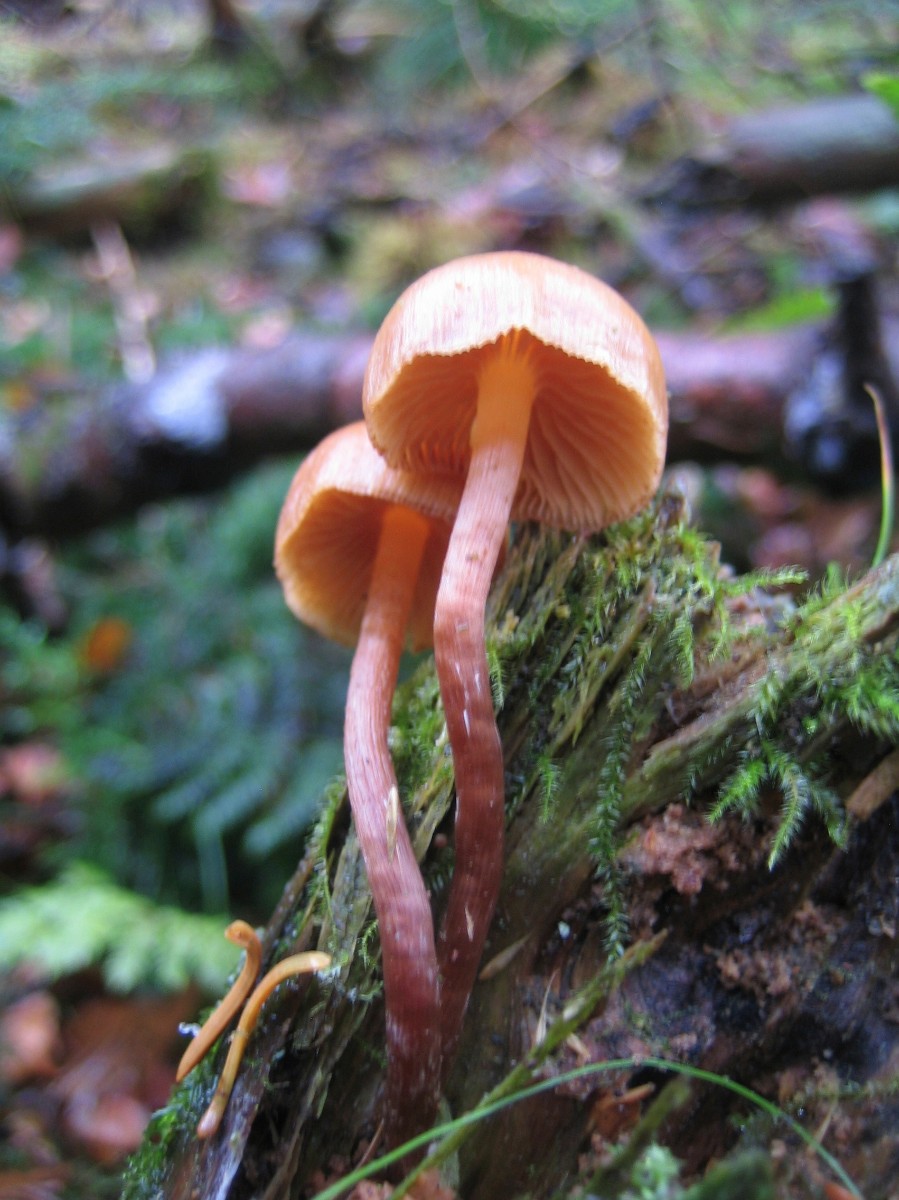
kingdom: Fungi
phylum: Basidiomycota
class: Agaricomycetes
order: Agaricales
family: Hymenogastraceae
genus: Galerina
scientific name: Galerina
